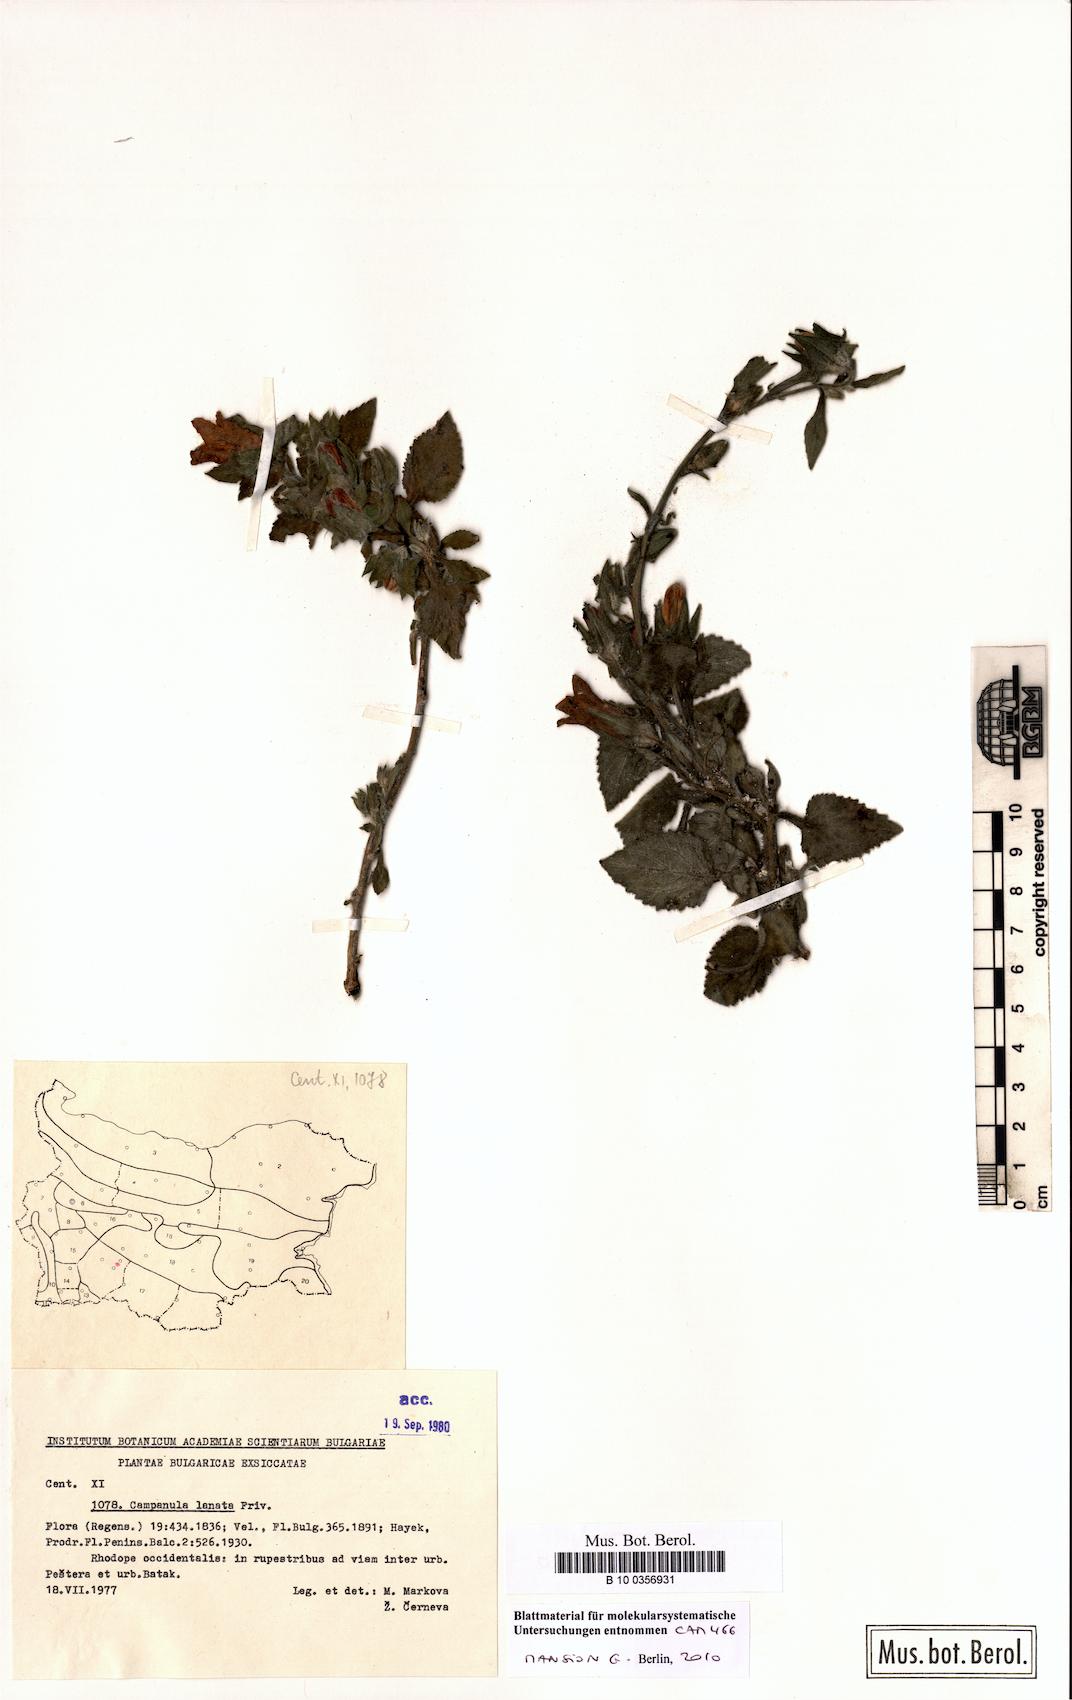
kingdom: Plantae
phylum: Tracheophyta
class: Magnoliopsida
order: Asterales
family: Campanulaceae
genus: Campanula
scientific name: Campanula lanata
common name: Woolly bellflower
